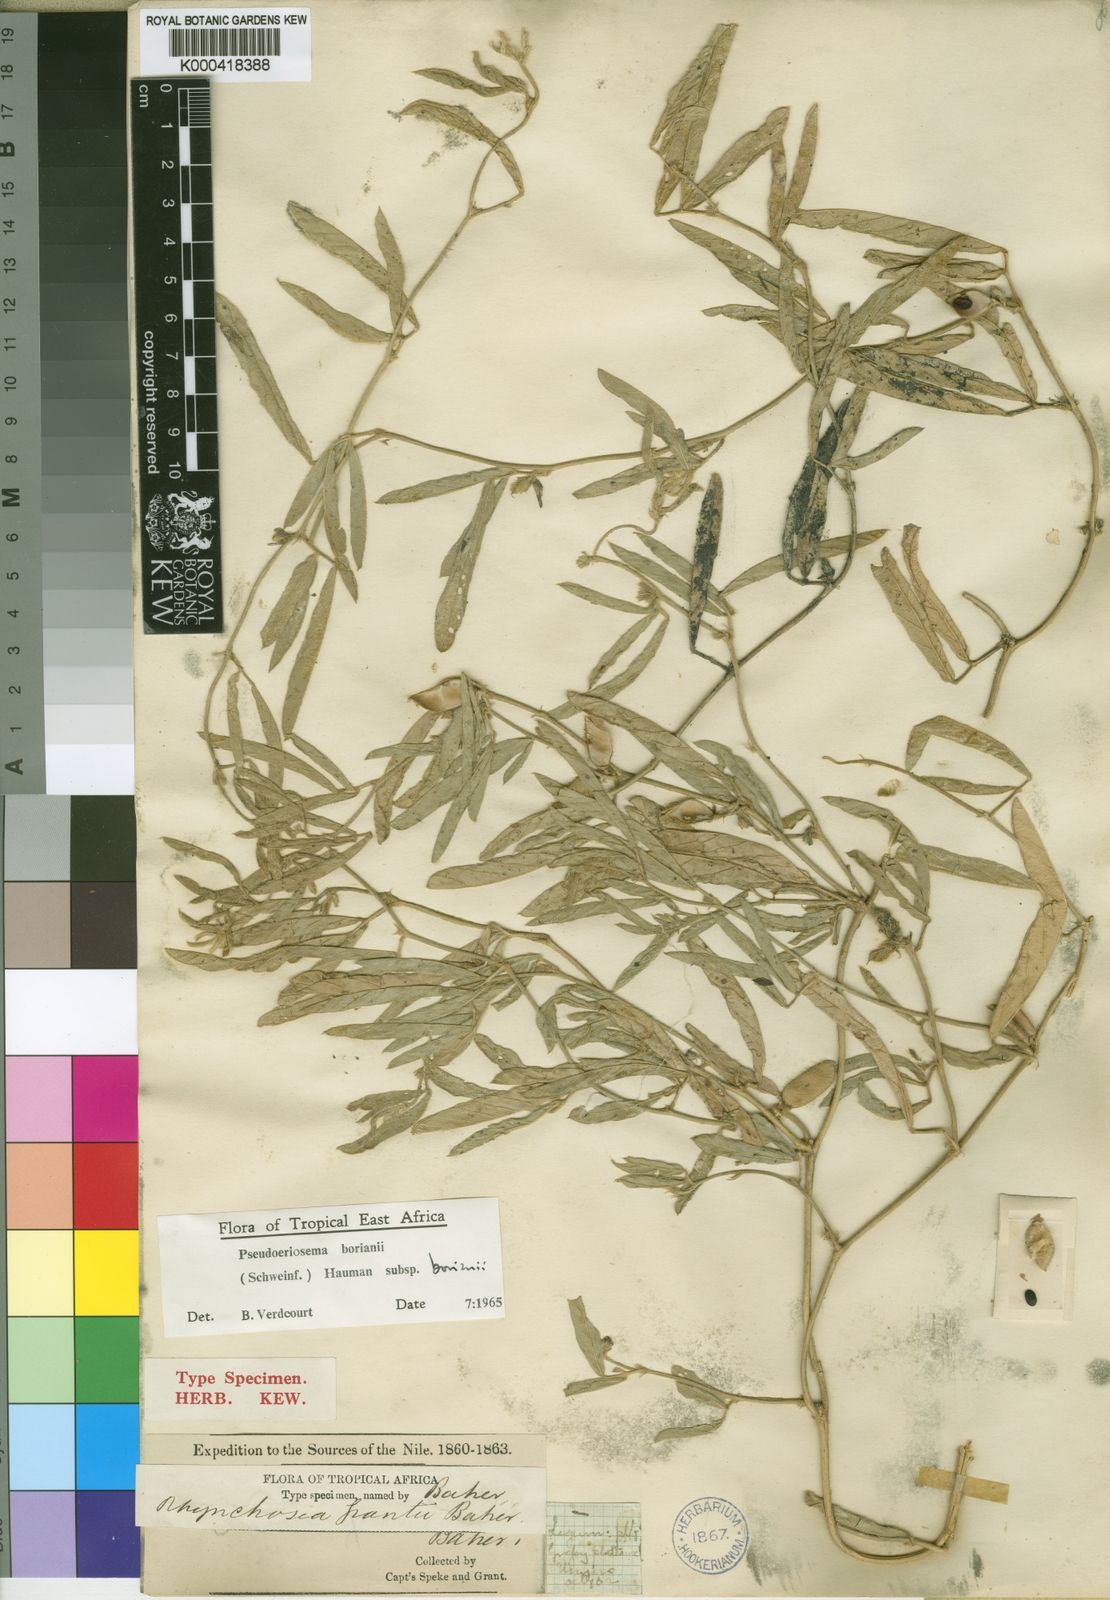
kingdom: Plantae
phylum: Tracheophyta
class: Magnoliopsida
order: Fabales
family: Fabaceae
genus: Pseudoeriosema
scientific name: Pseudoeriosema borianii
